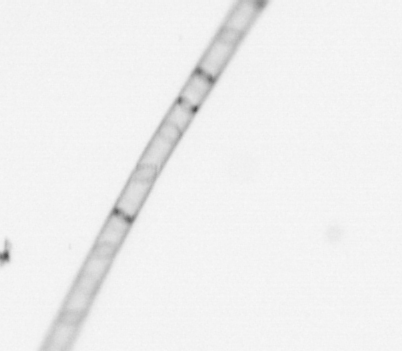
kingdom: Chromista
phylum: Ochrophyta
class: Bacillariophyceae
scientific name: Bacillariophyceae
